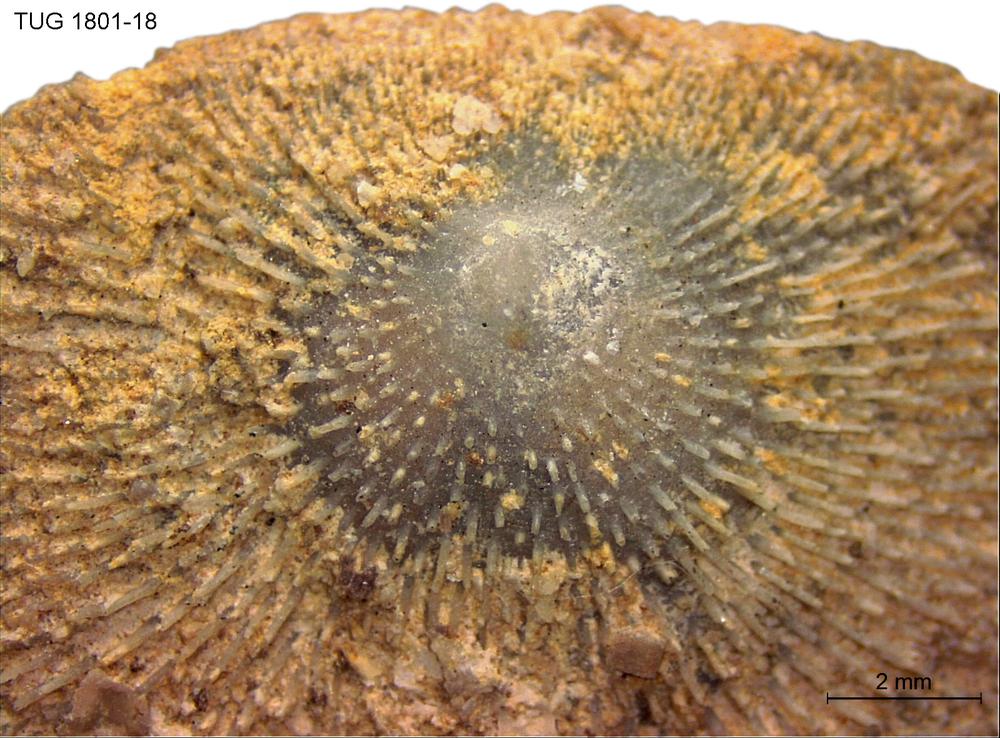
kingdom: Animalia
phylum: Brachiopoda
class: Craniata
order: Craniida
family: Craniidae
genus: Philhedra
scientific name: Philhedra
